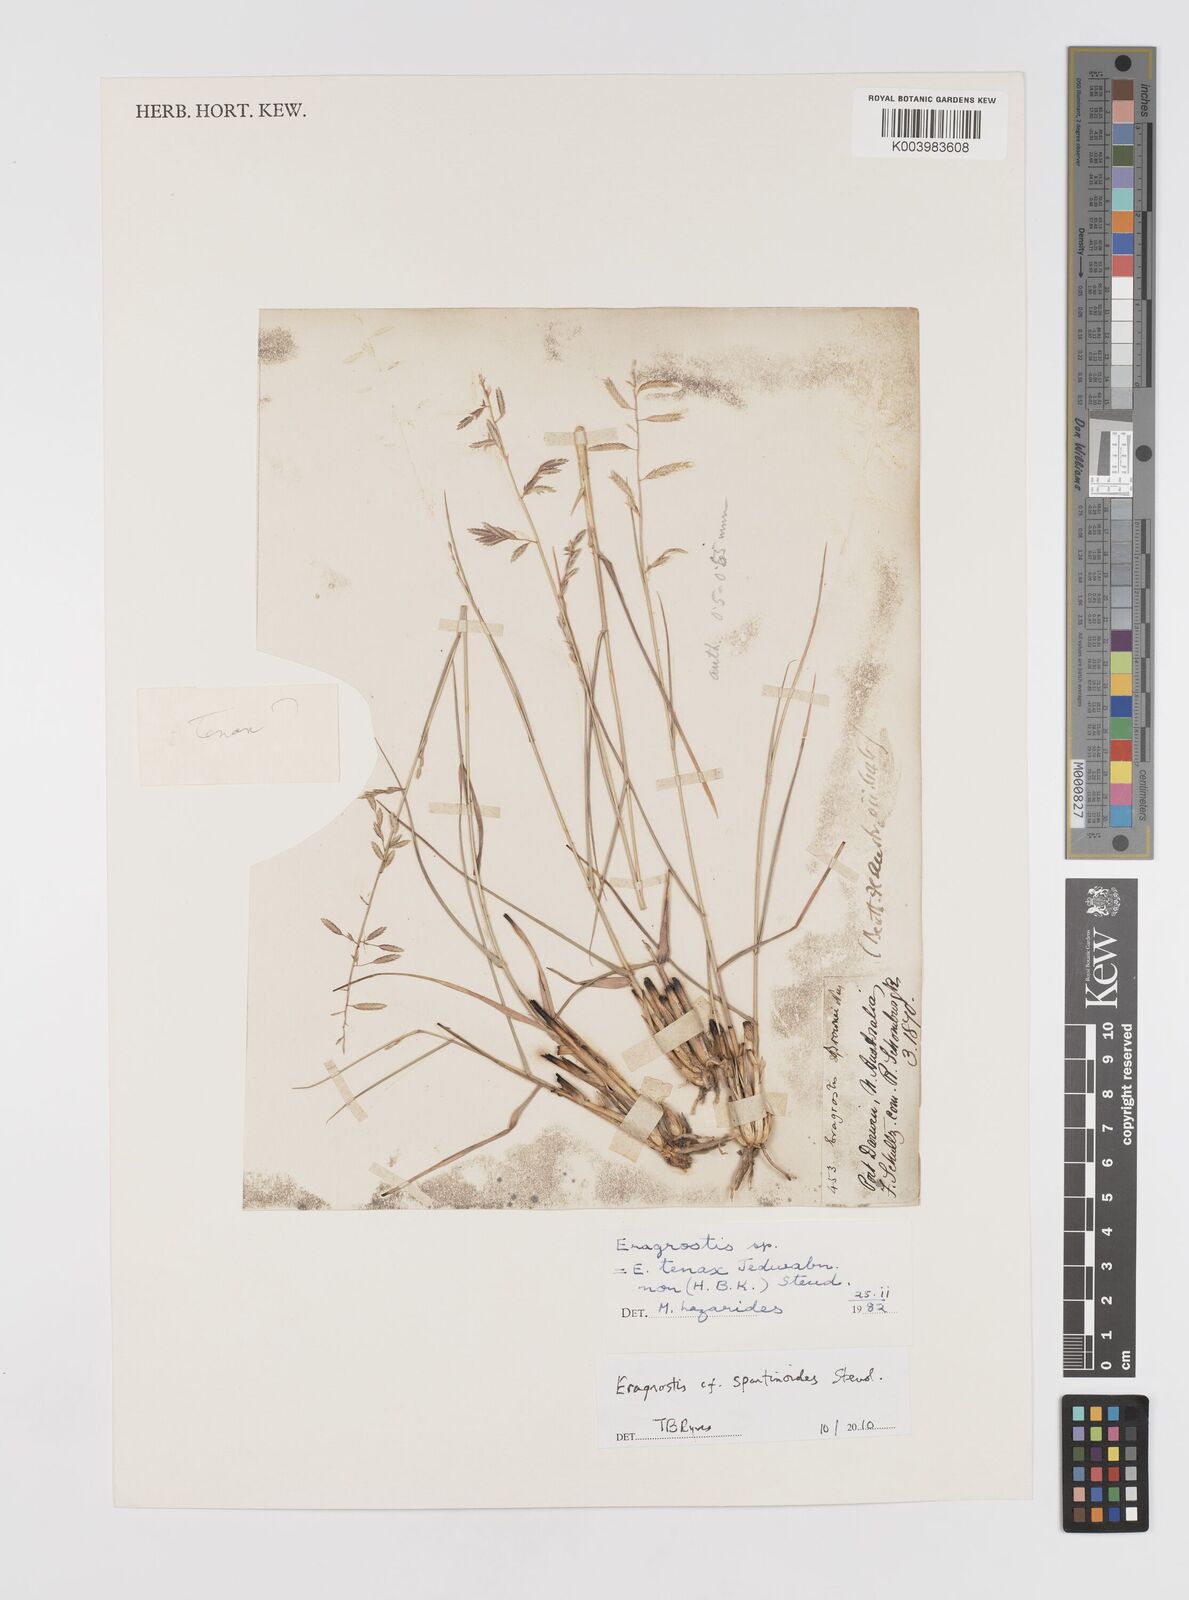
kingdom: Plantae
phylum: Tracheophyta
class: Liliopsida
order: Poales
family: Poaceae
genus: Eragrostis
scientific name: Eragrostis brownii
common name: Lovegrass
